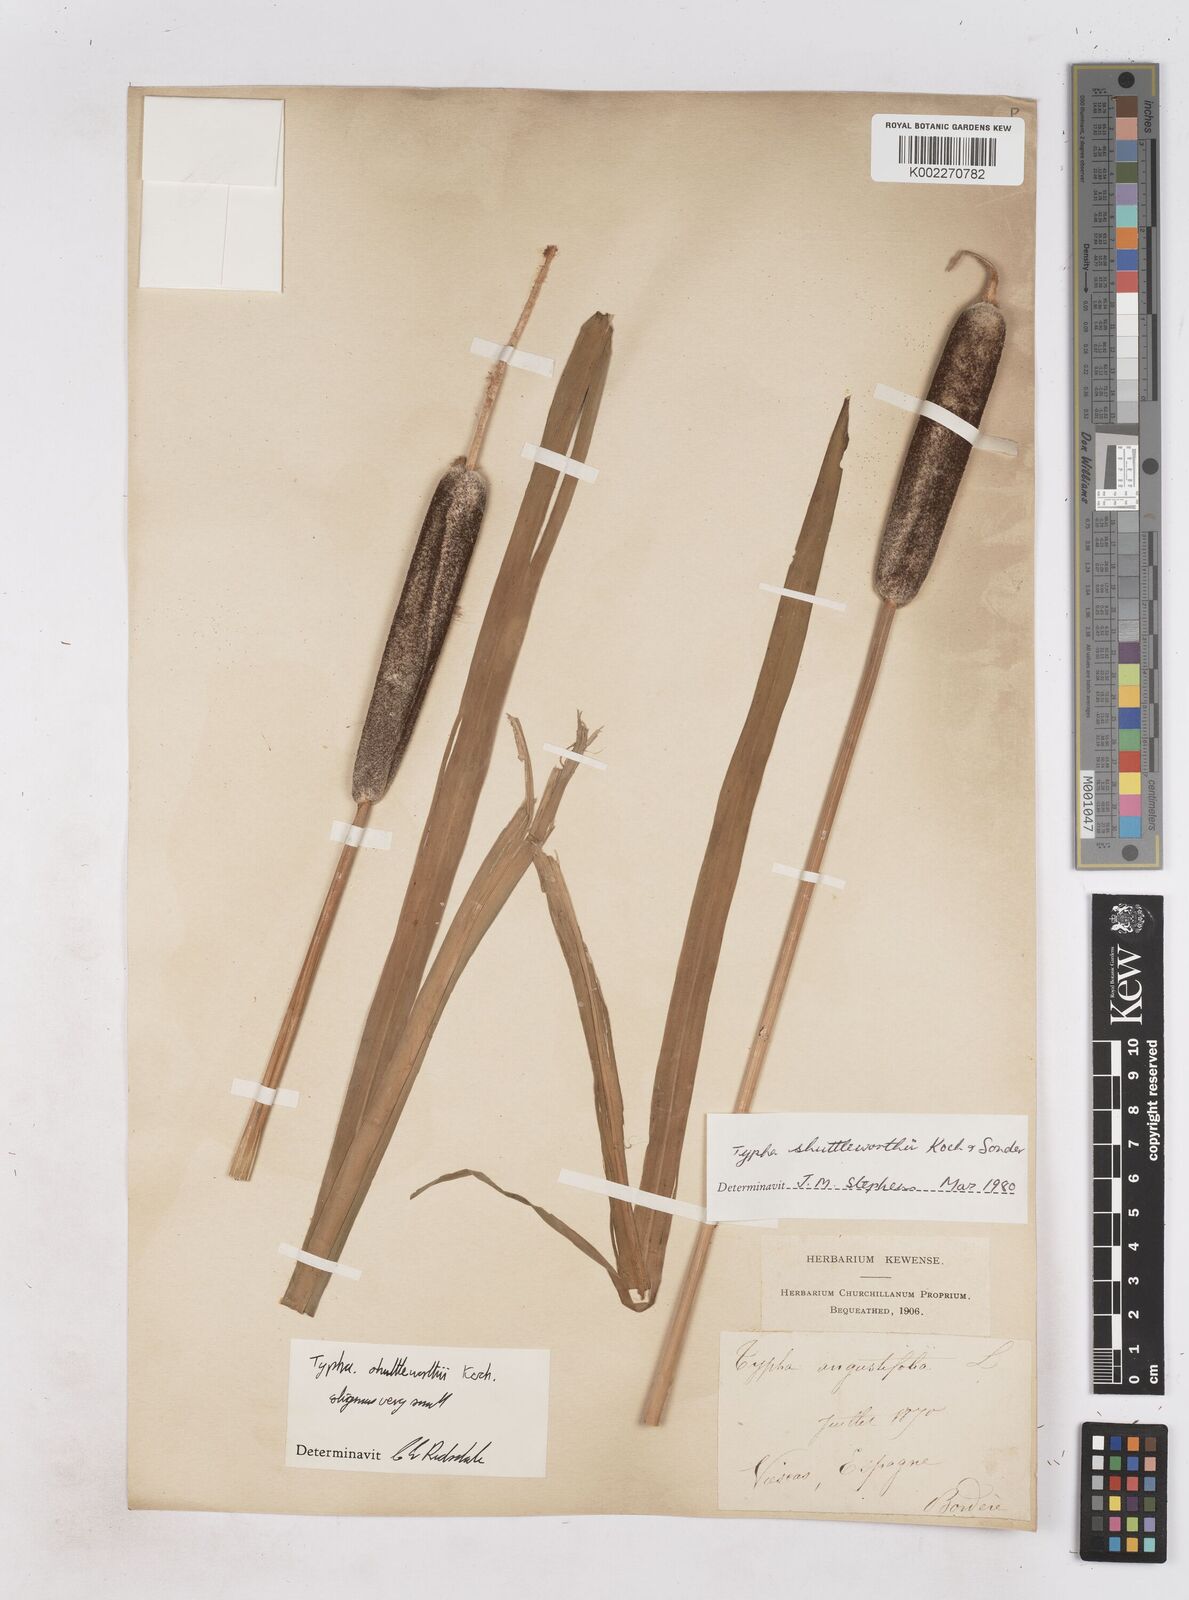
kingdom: Plantae
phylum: Tracheophyta
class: Liliopsida
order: Poales
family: Typhaceae
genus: Typha
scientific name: Typha shuttleworthii
